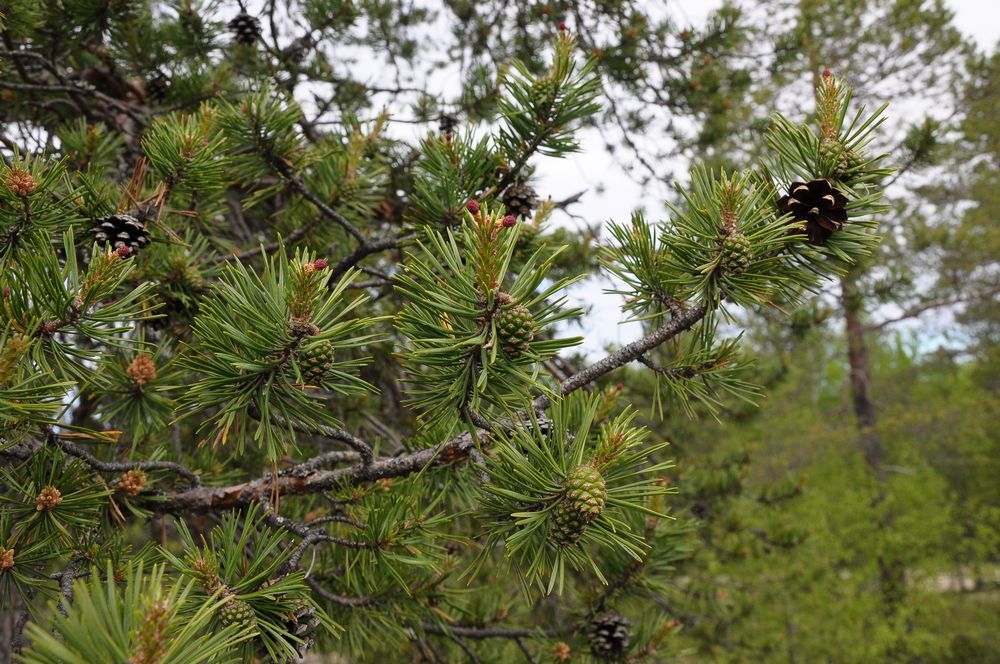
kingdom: Plantae
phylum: Tracheophyta
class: Pinopsida
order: Pinales
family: Pinaceae
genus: Pinus
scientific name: Pinus sylvestris
